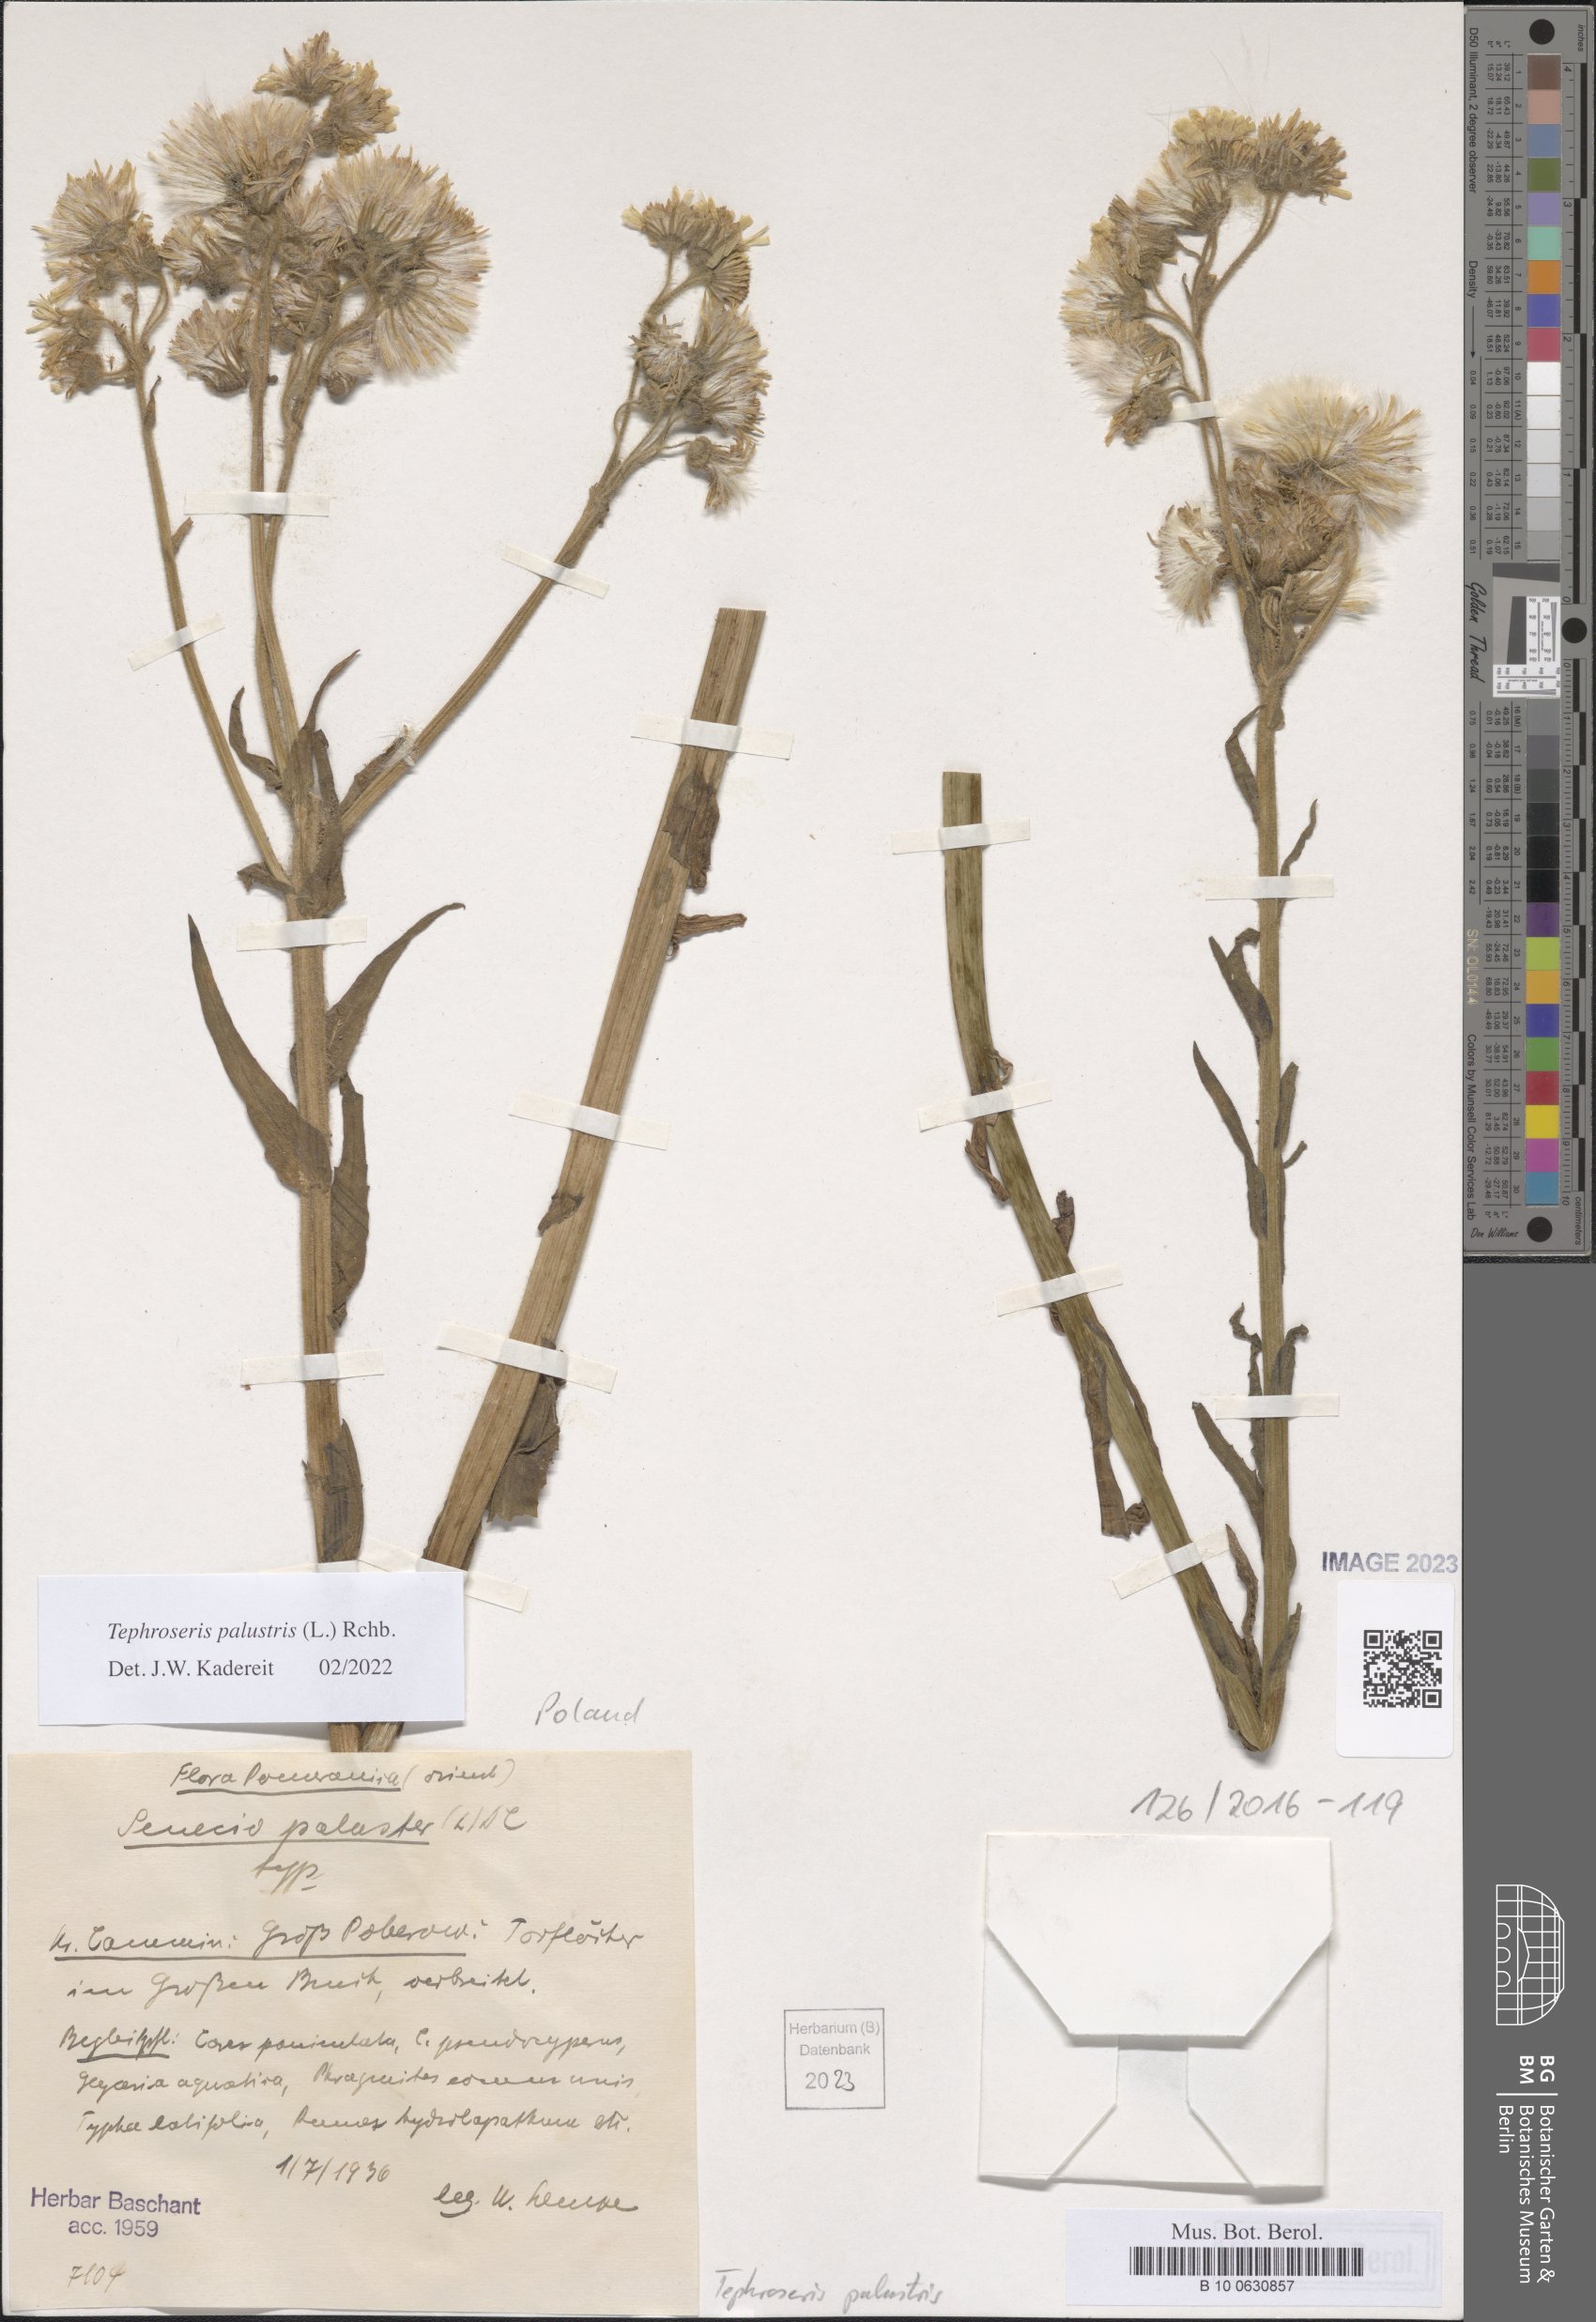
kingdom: Plantae
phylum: Tracheophyta
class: Magnoliopsida
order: Asterales
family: Asteraceae
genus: Tephroseris
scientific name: Tephroseris palustris
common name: Marsh fleawort
